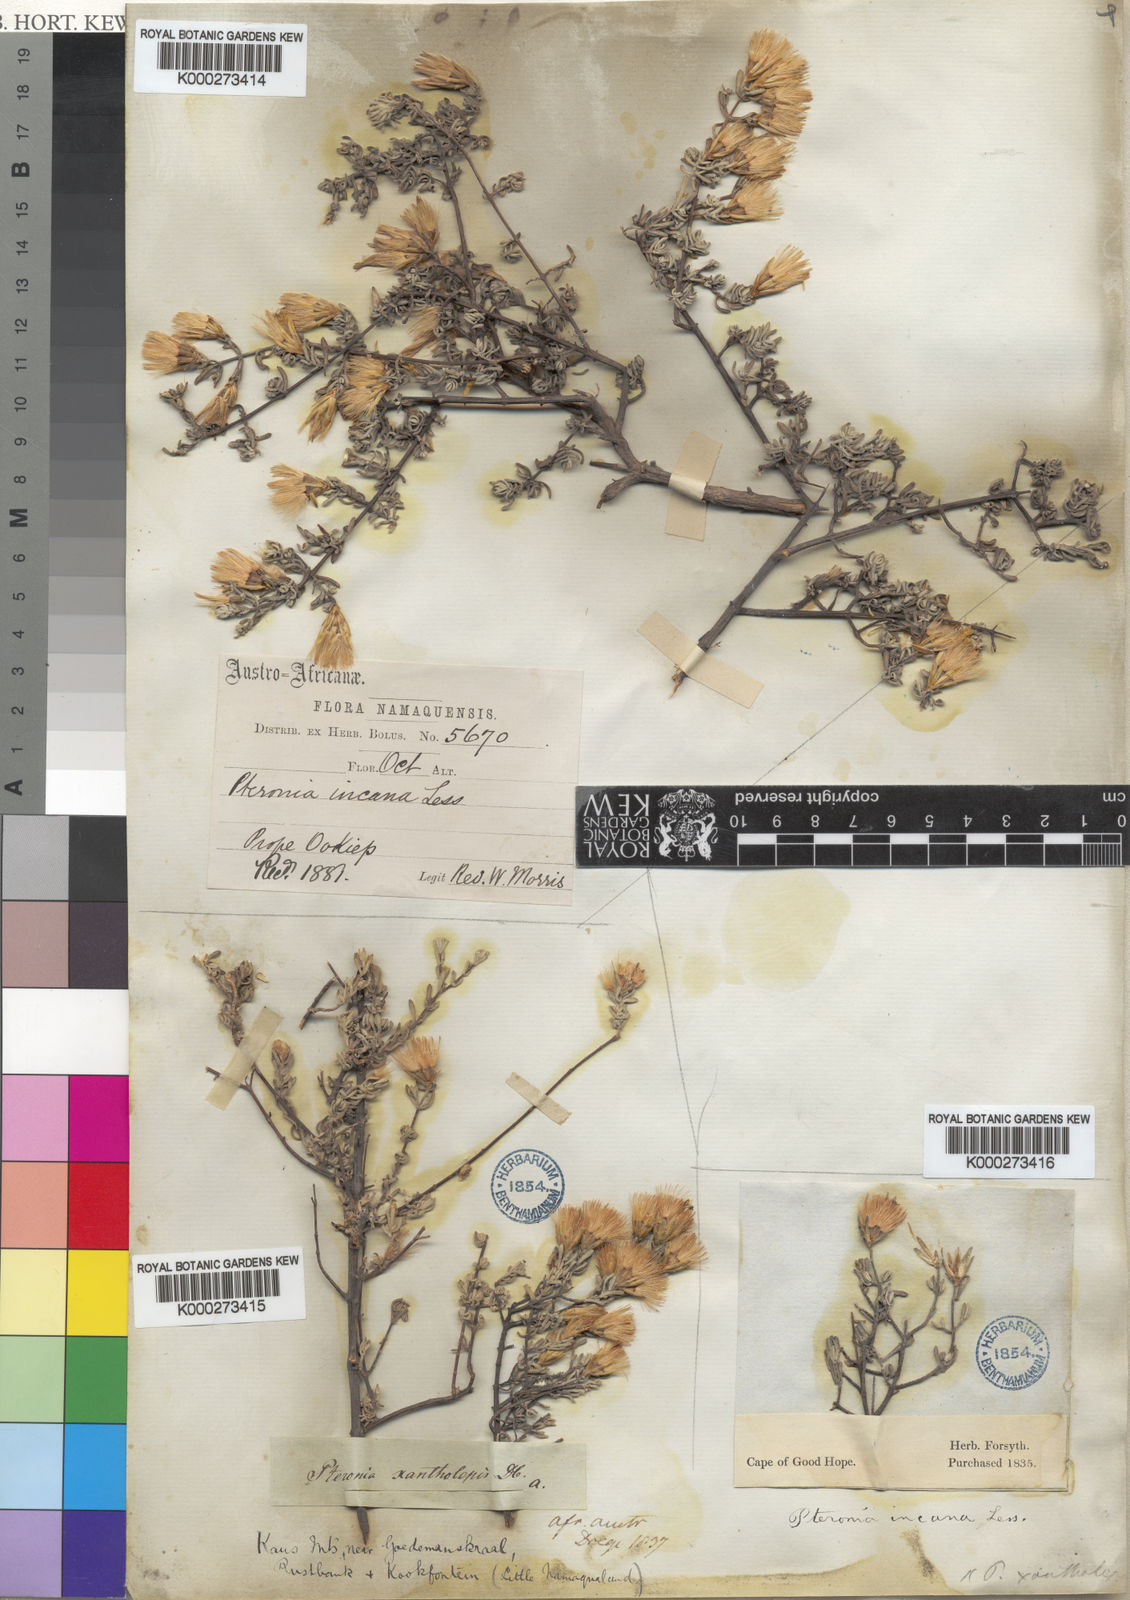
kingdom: Plantae
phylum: Tracheophyta
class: Magnoliopsida
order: Asterales
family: Asteraceae
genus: Pteronia
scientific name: Pteronia
